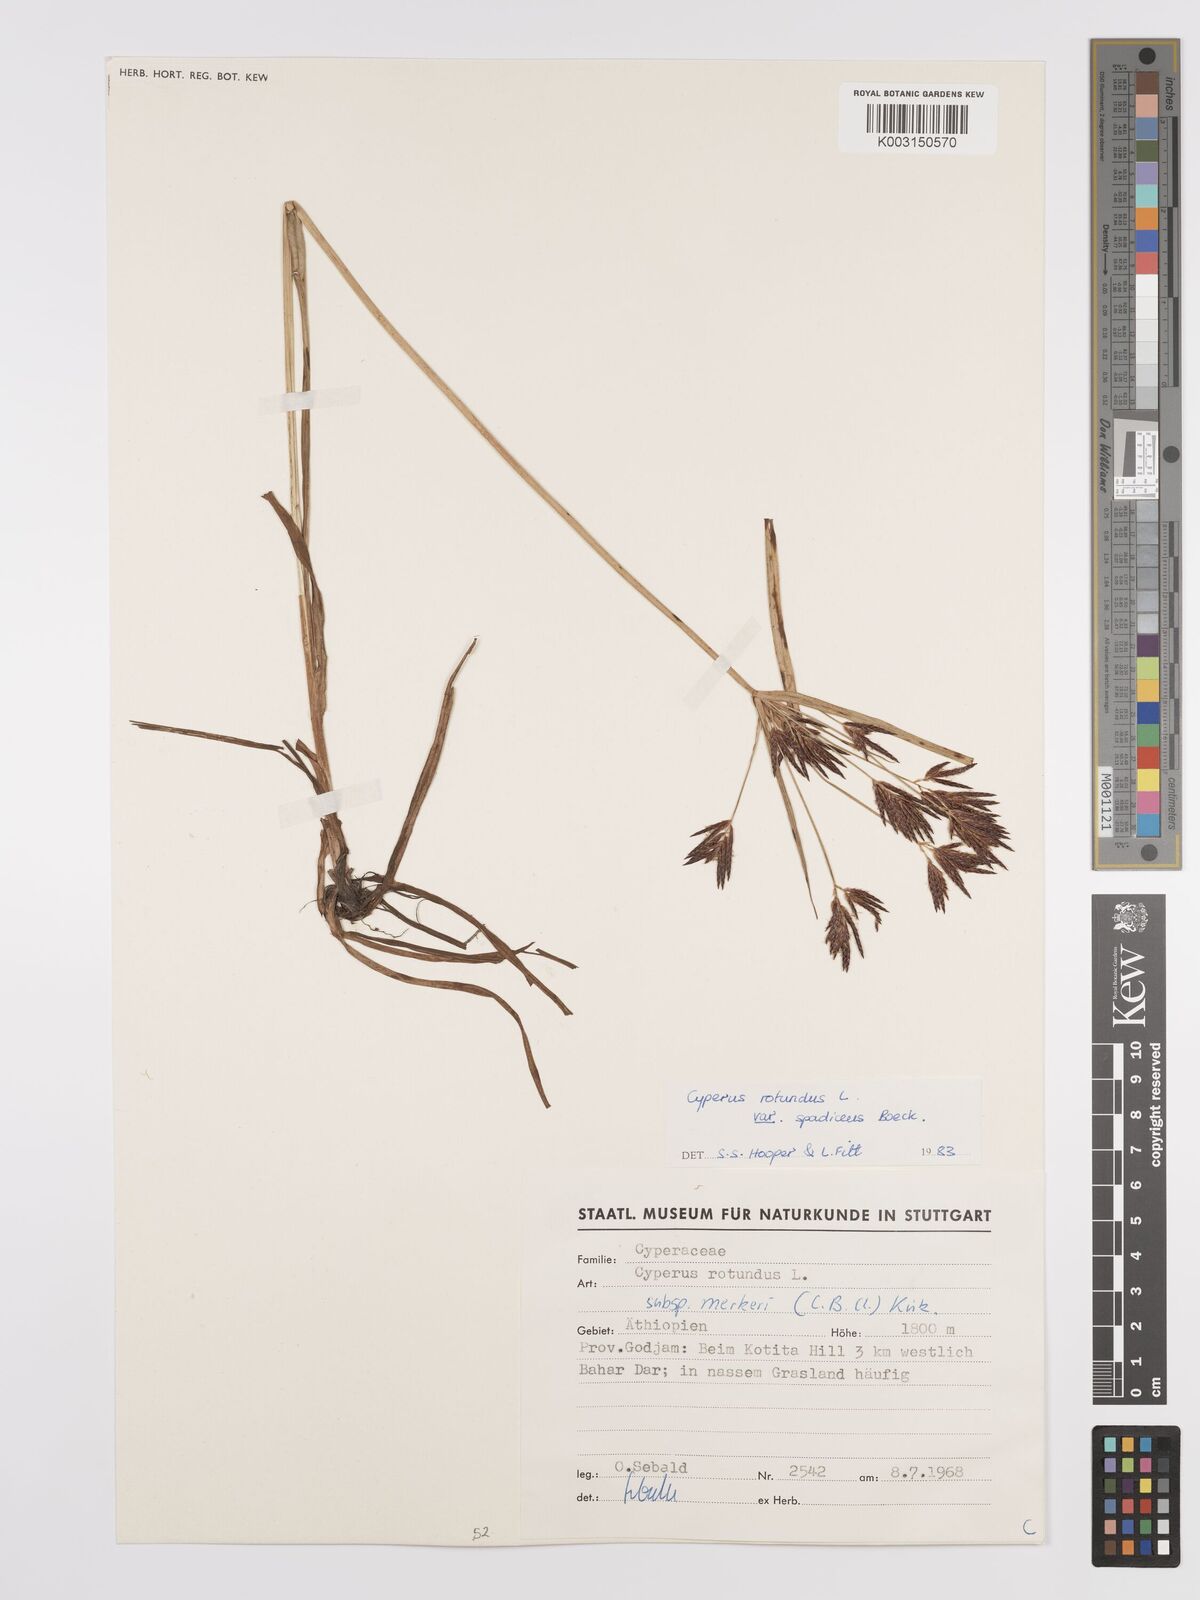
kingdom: Plantae
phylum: Tracheophyta
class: Liliopsida
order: Poales
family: Cyperaceae
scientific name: Cyperaceae
